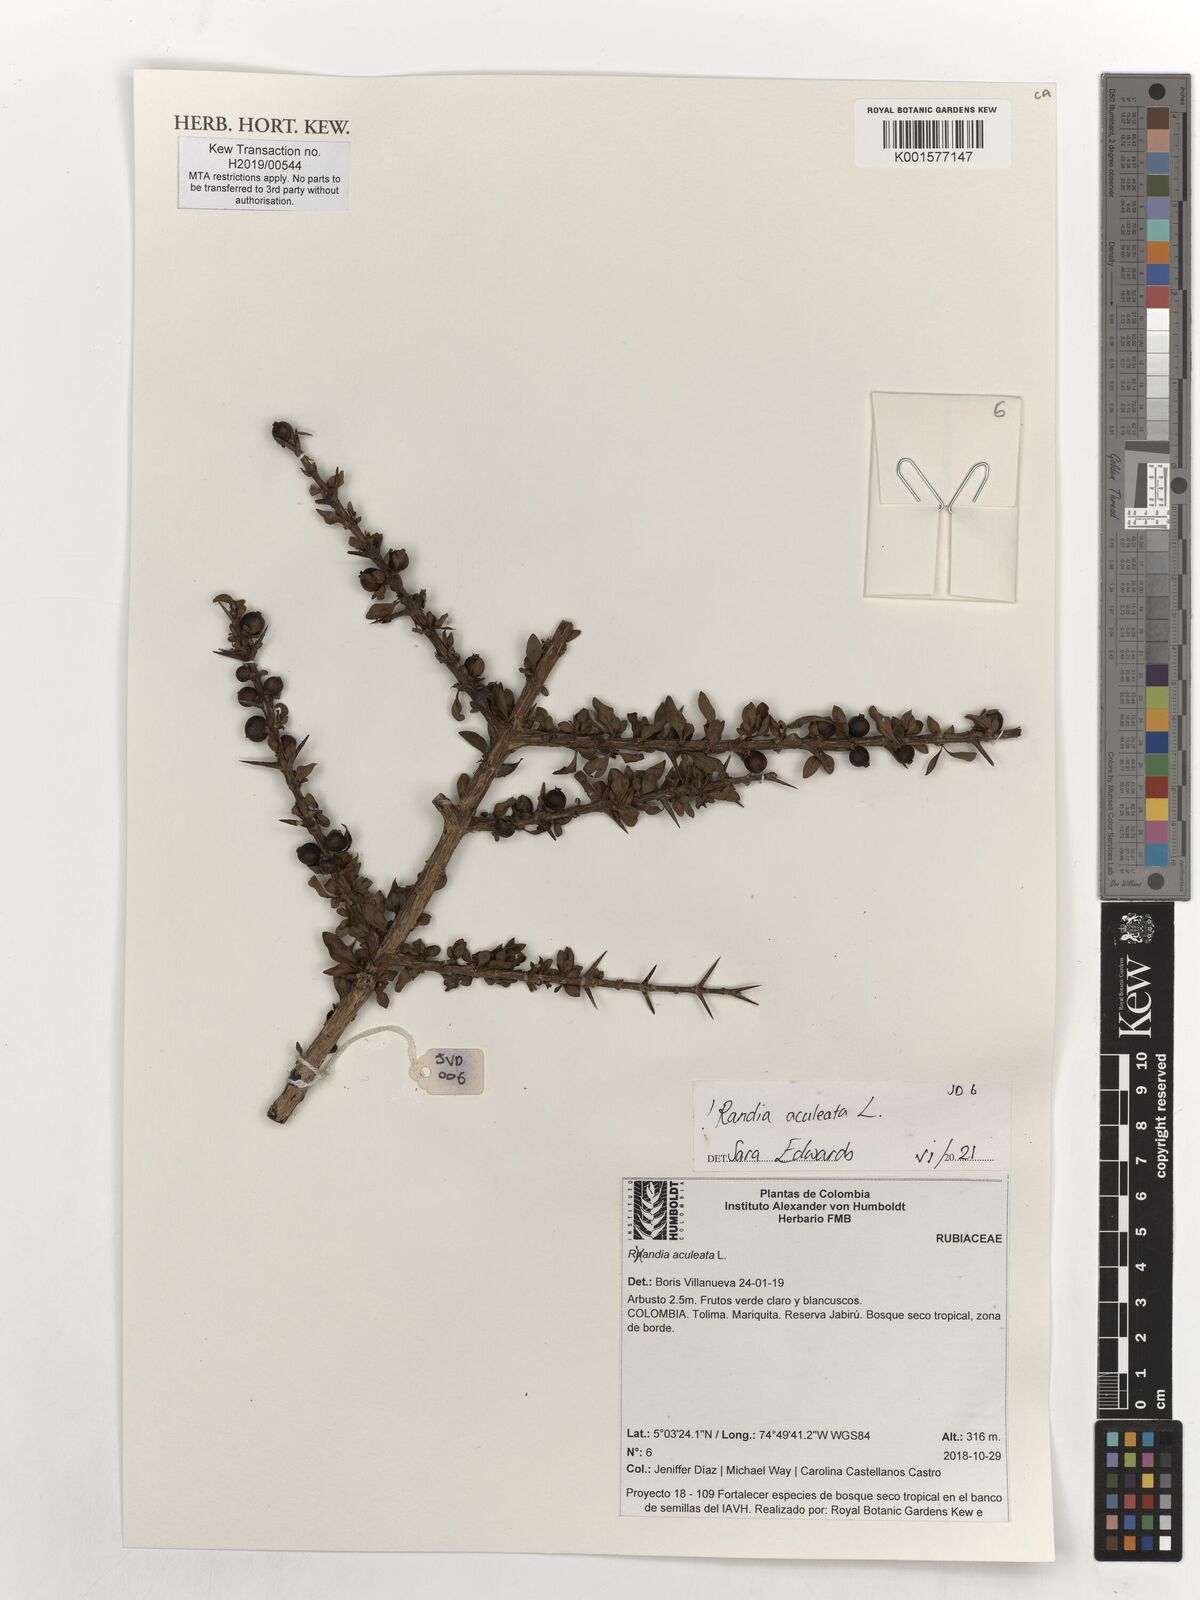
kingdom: Plantae
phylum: Tracheophyta
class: Magnoliopsida
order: Gentianales
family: Rubiaceae
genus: Randia
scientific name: Randia aculeata
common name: Inkberry
